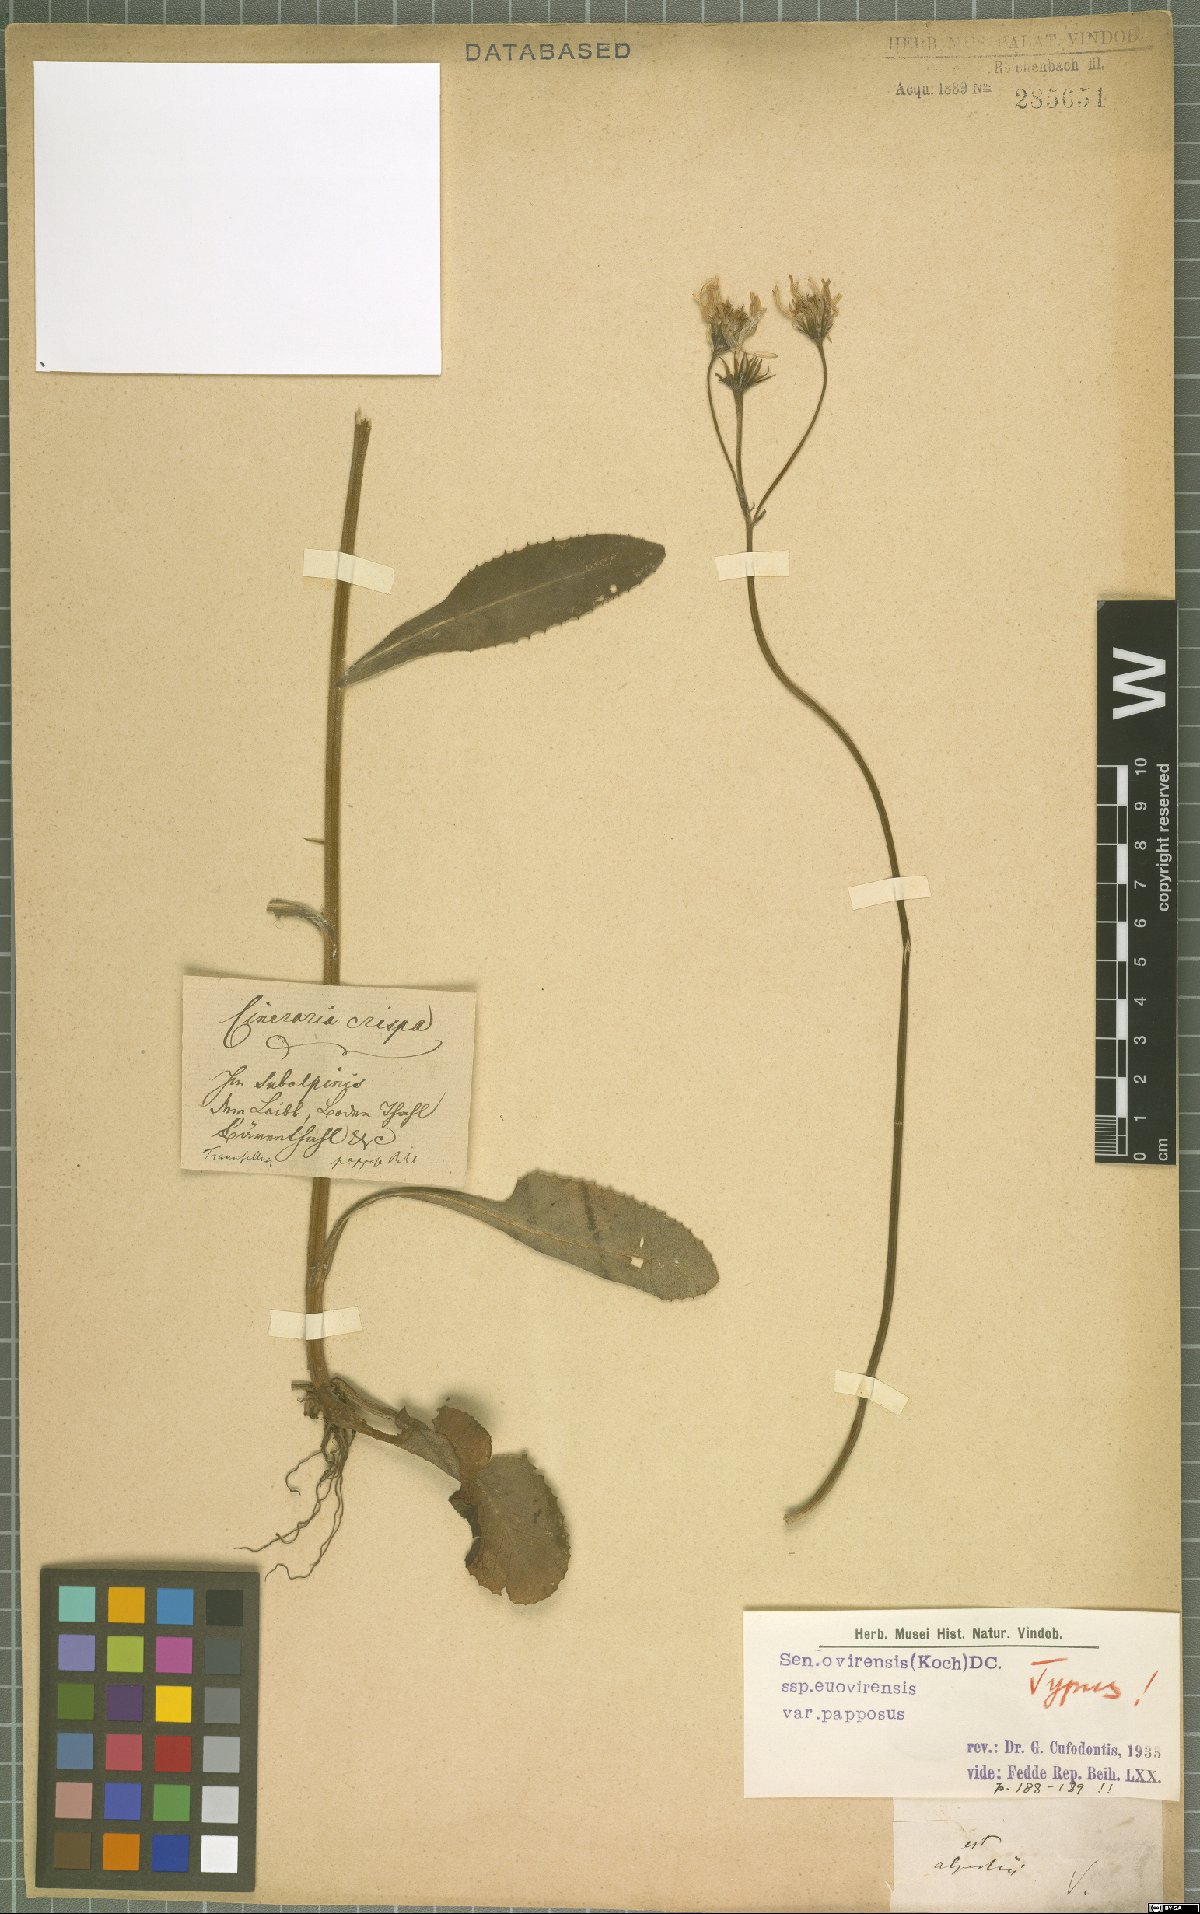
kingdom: Plantae
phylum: Tracheophyta
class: Magnoliopsida
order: Asterales
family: Asteraceae
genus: Tephroseris
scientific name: Tephroseris longifolia
